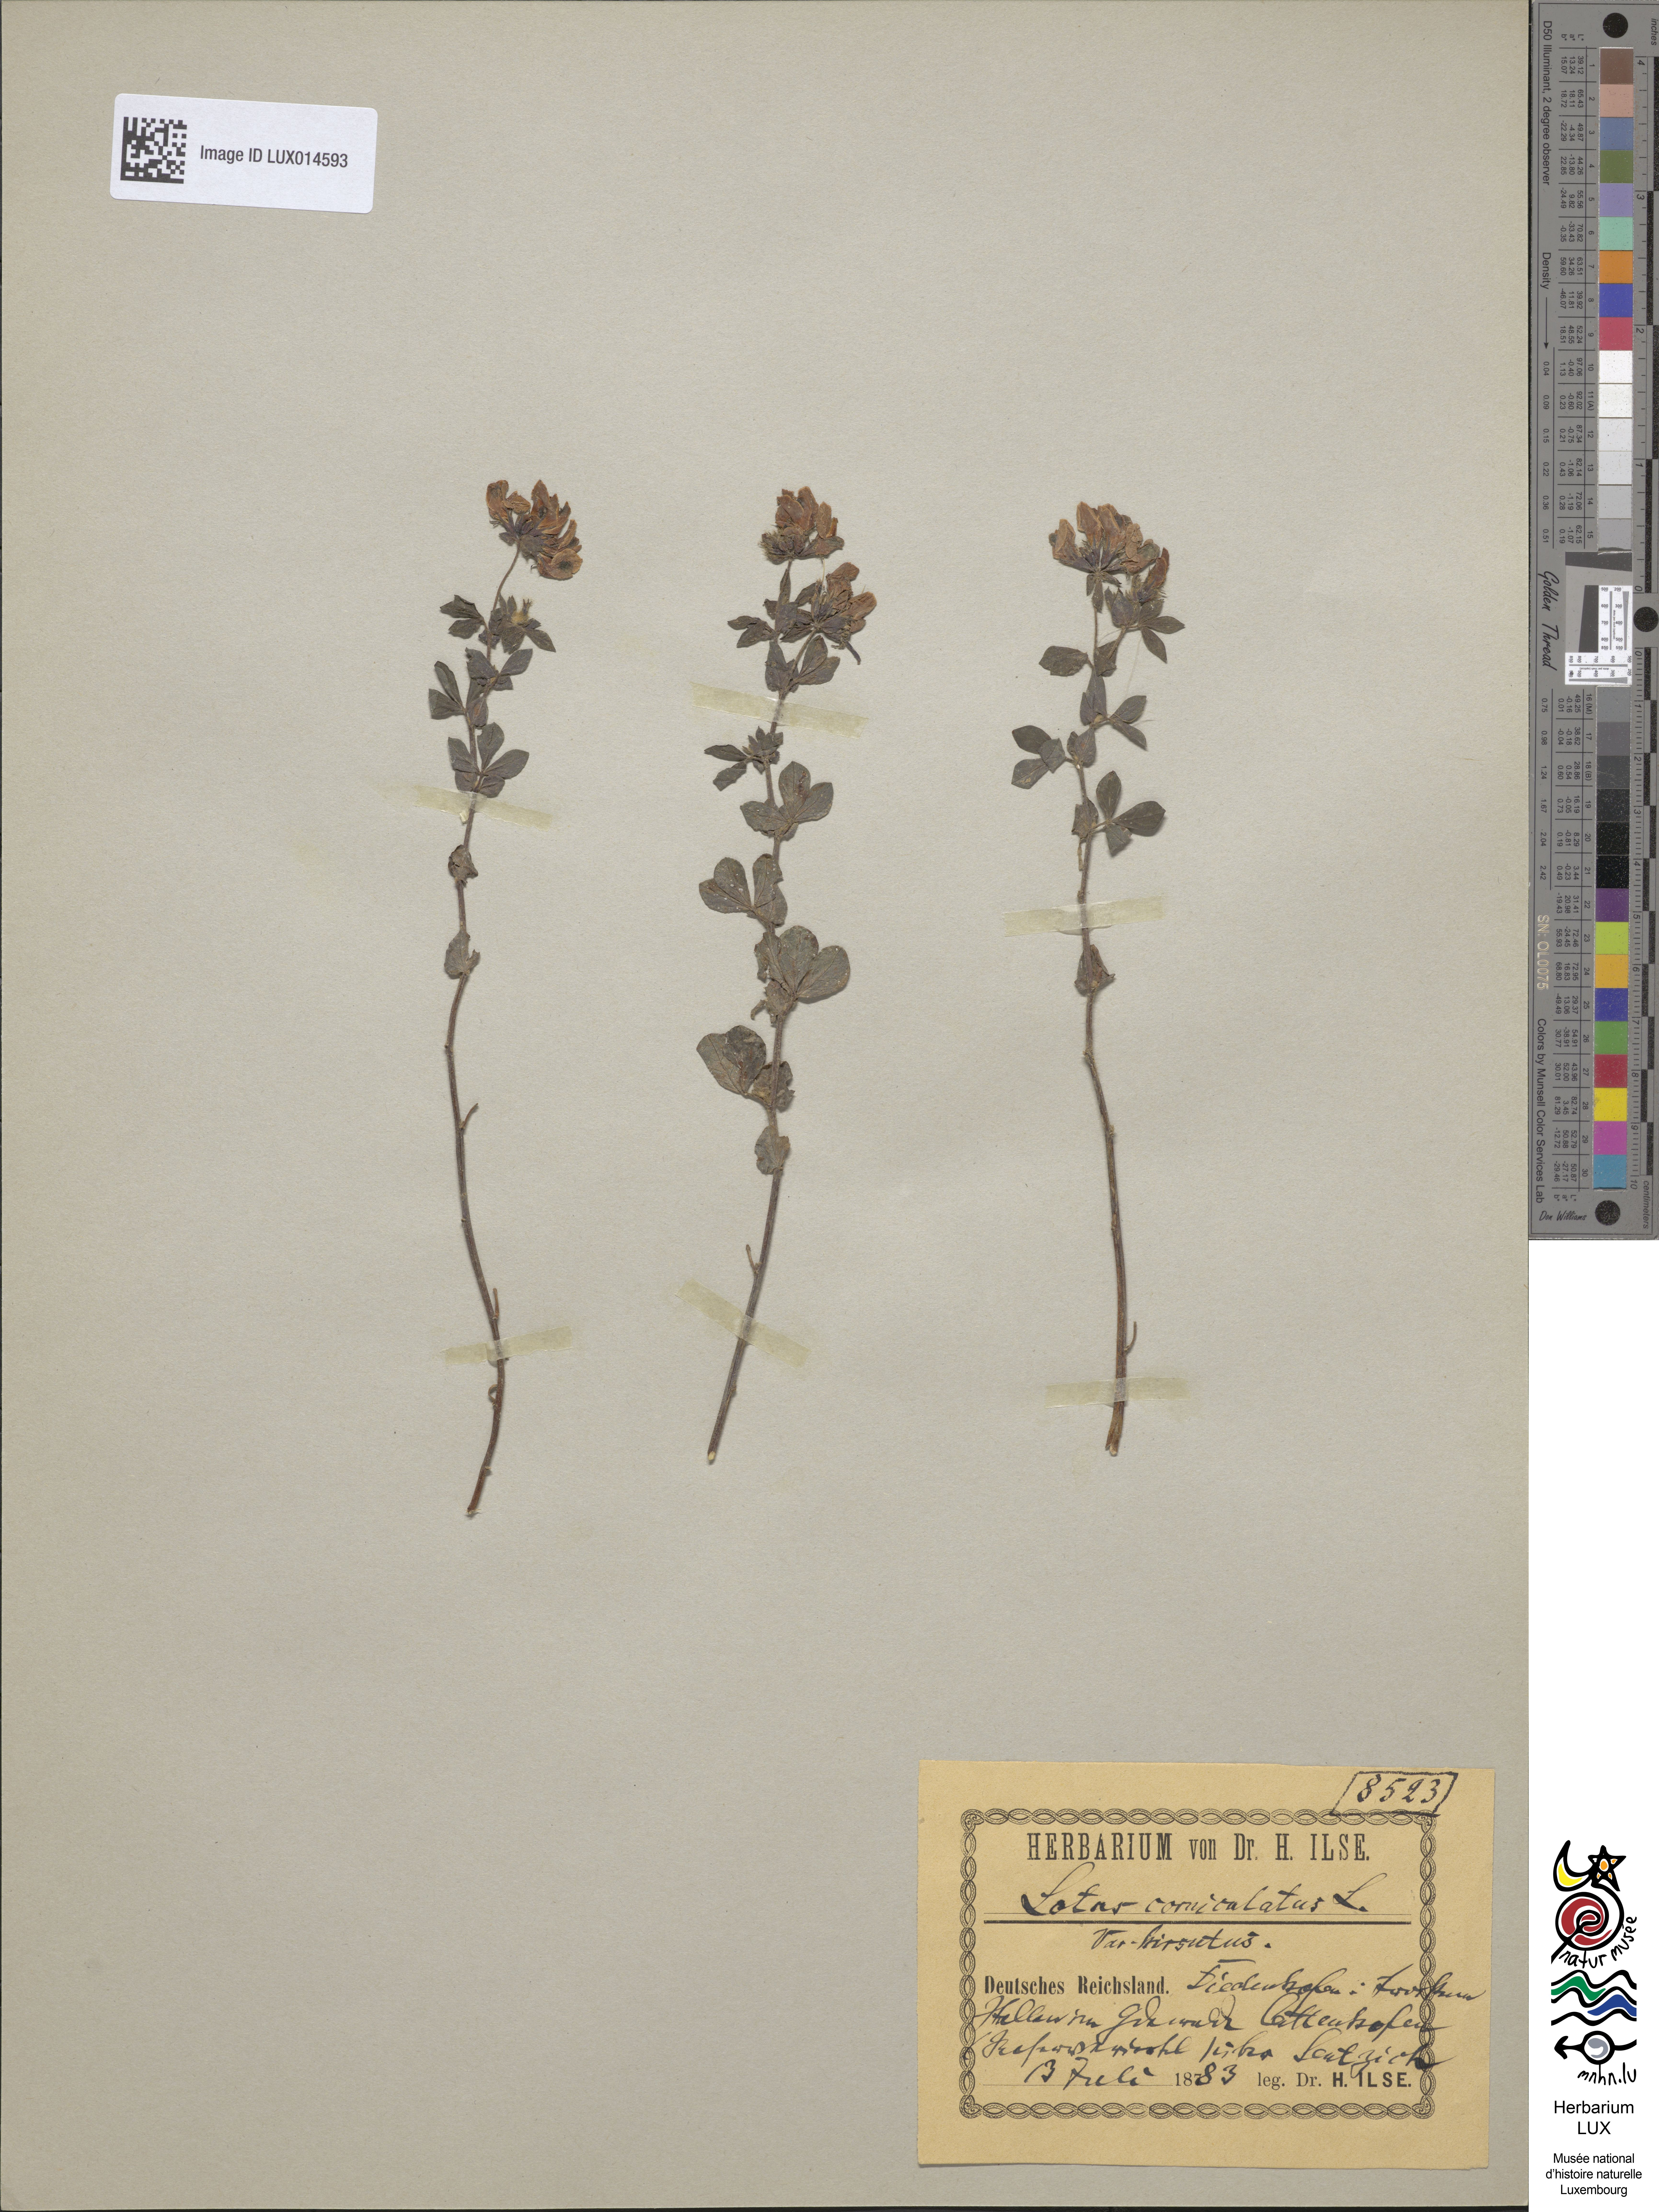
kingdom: Plantae
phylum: Tracheophyta
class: Magnoliopsida
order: Fabales
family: Fabaceae
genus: Lotus
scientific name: Lotus corniculatus
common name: Common bird's-foot-trefoil
